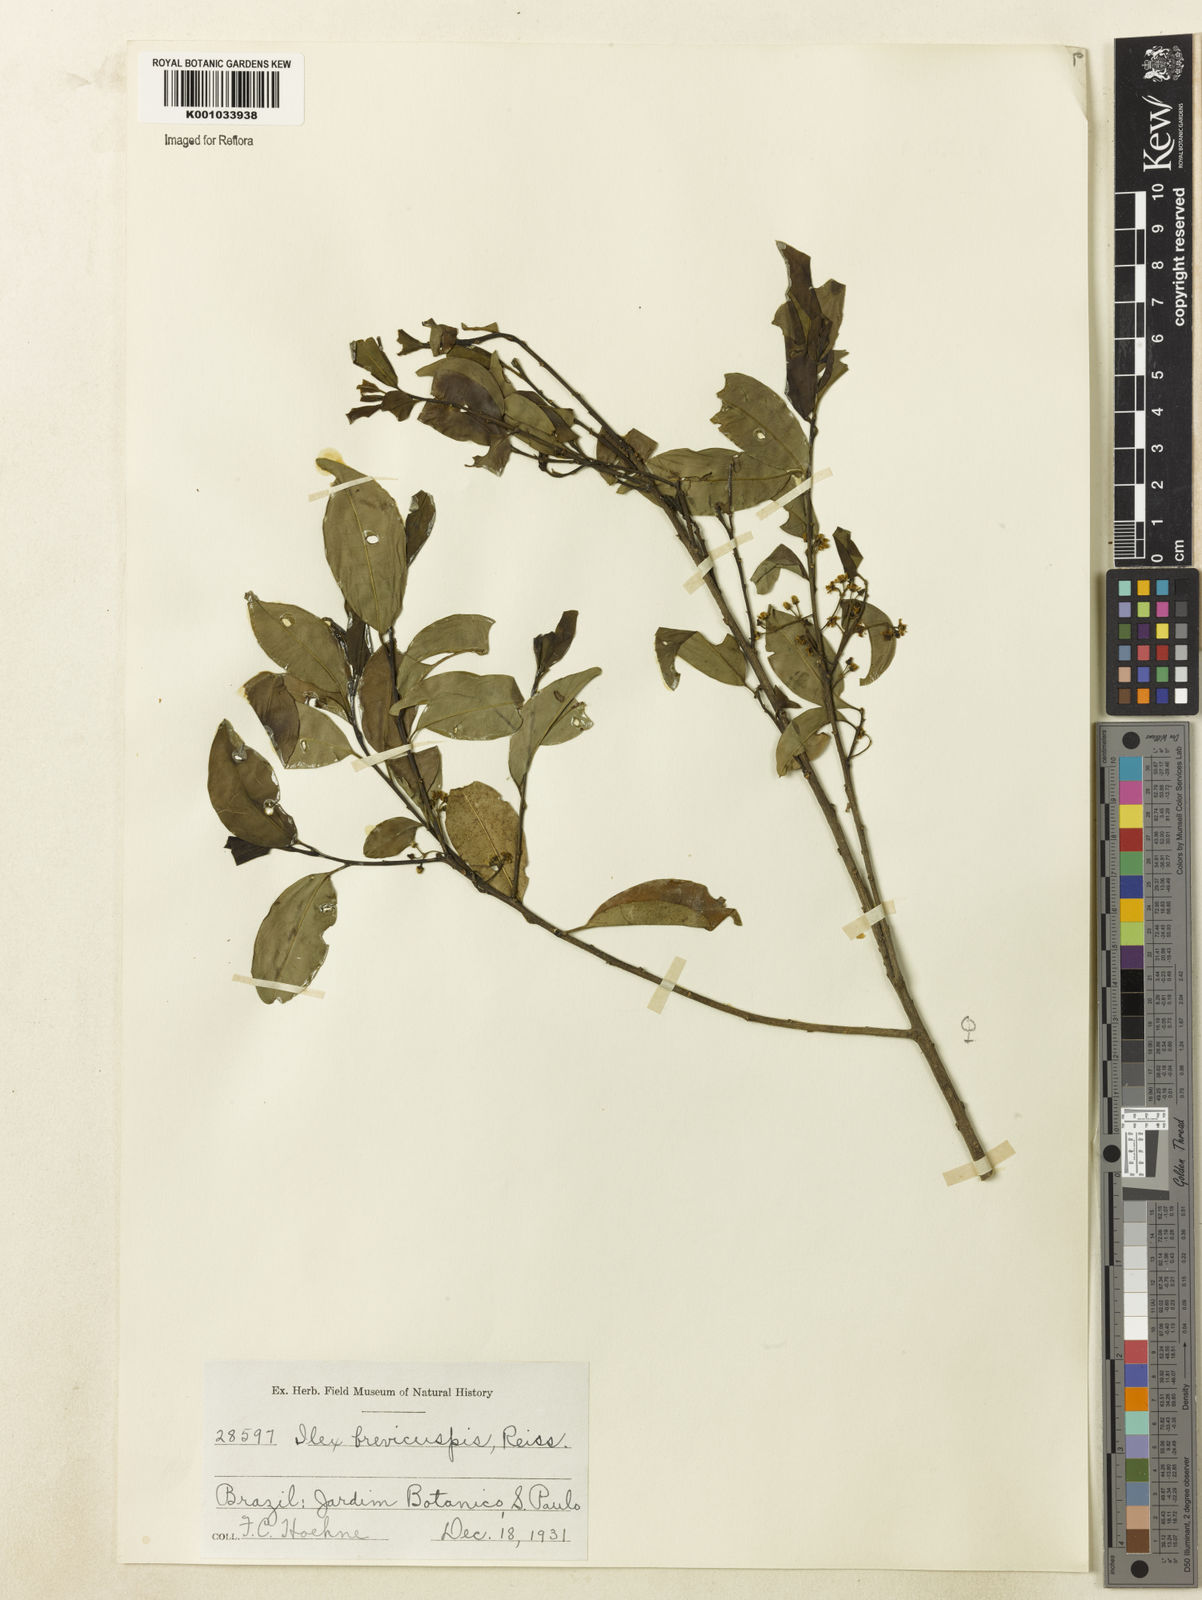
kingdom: Plantae
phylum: Tracheophyta
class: Magnoliopsida
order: Aquifoliales
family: Aquifoliaceae
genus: Ilex
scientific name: Ilex brevicuspis
